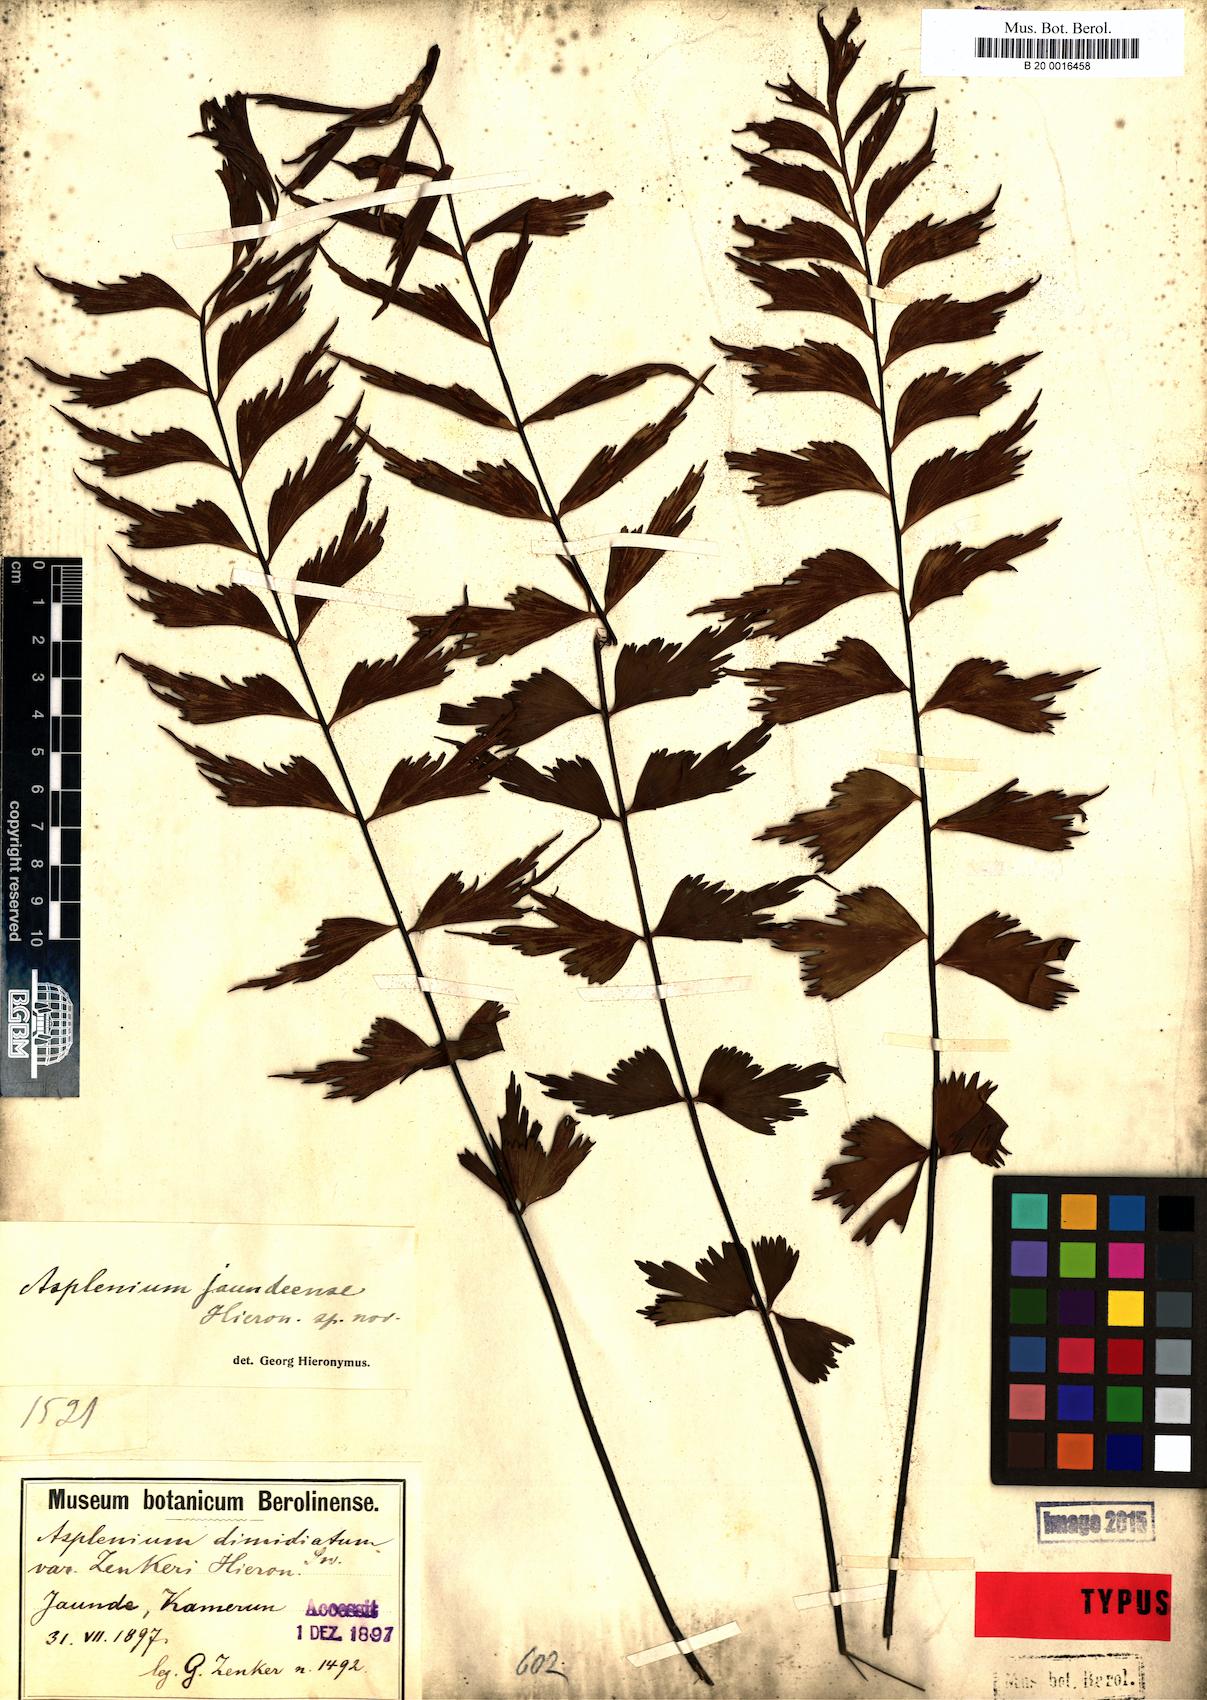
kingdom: Plantae
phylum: Tracheophyta
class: Polypodiopsida
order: Polypodiales
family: Aspleniaceae
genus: Asplenium
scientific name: Asplenium jaundeense
